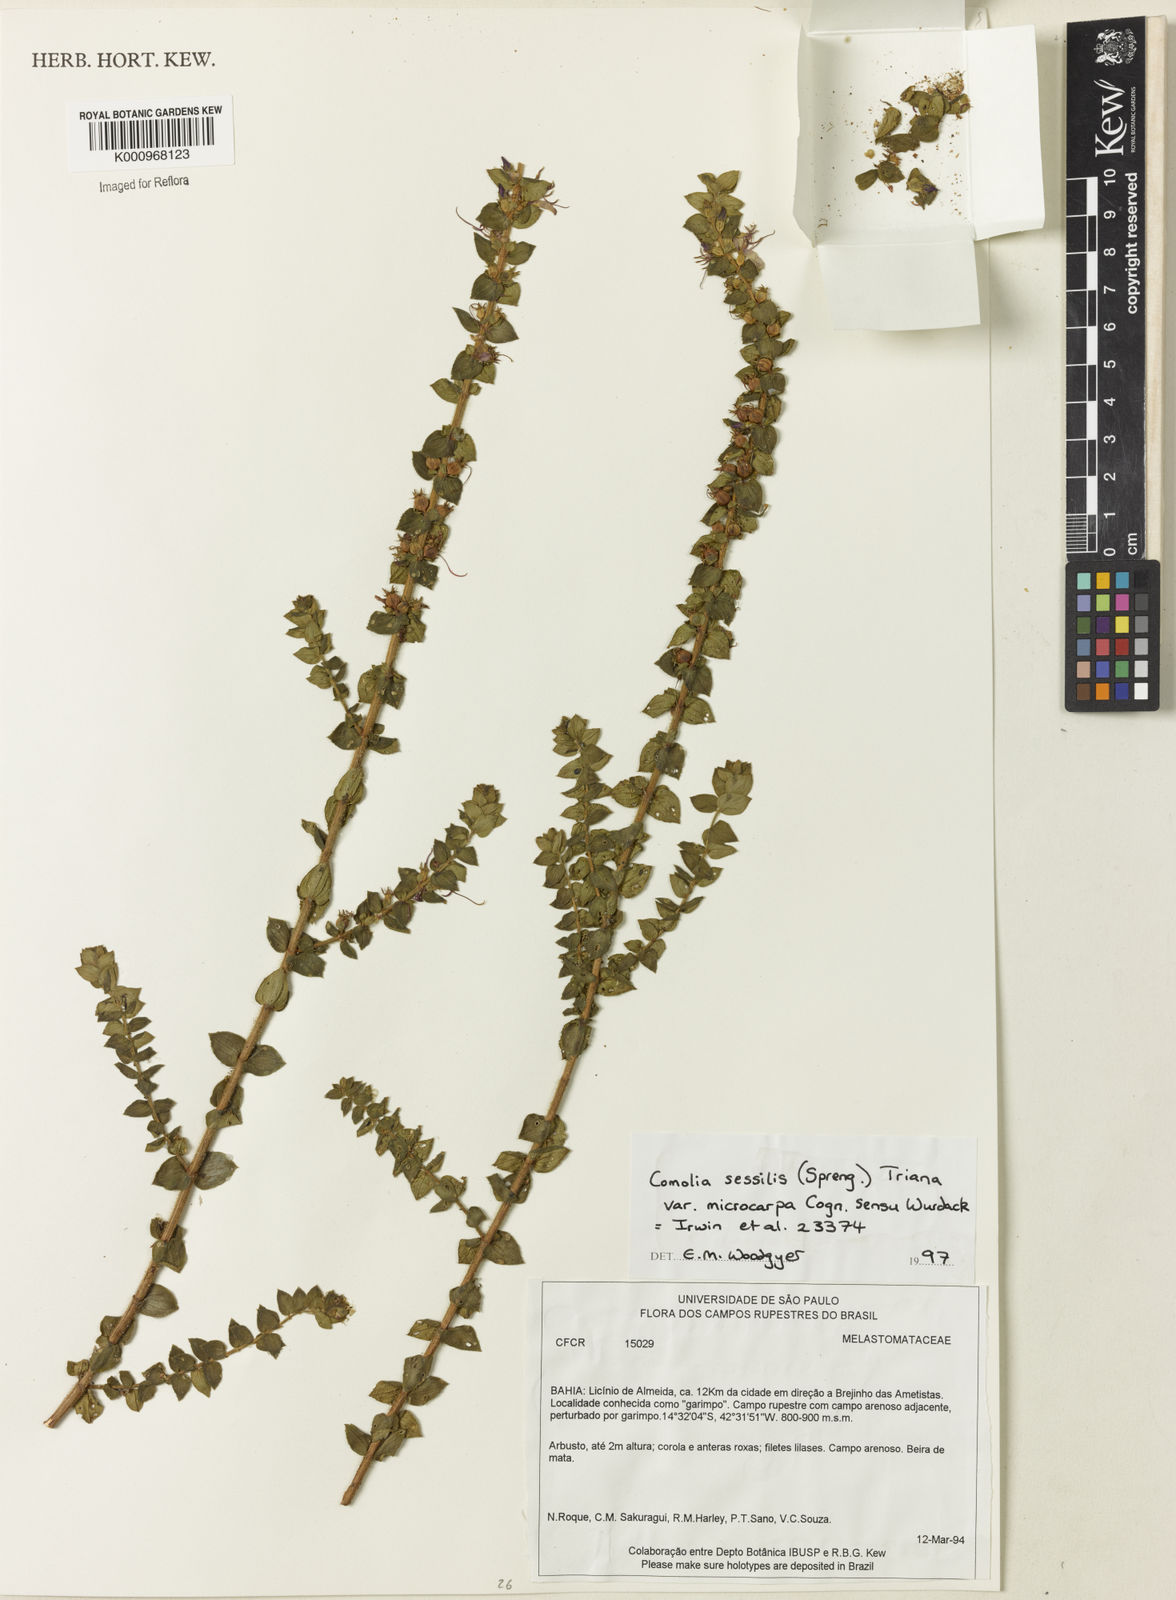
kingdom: Plantae
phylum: Tracheophyta
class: Magnoliopsida
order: Myrtales
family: Melastomataceae
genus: Fritzschia
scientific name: Fritzschia sessilis
